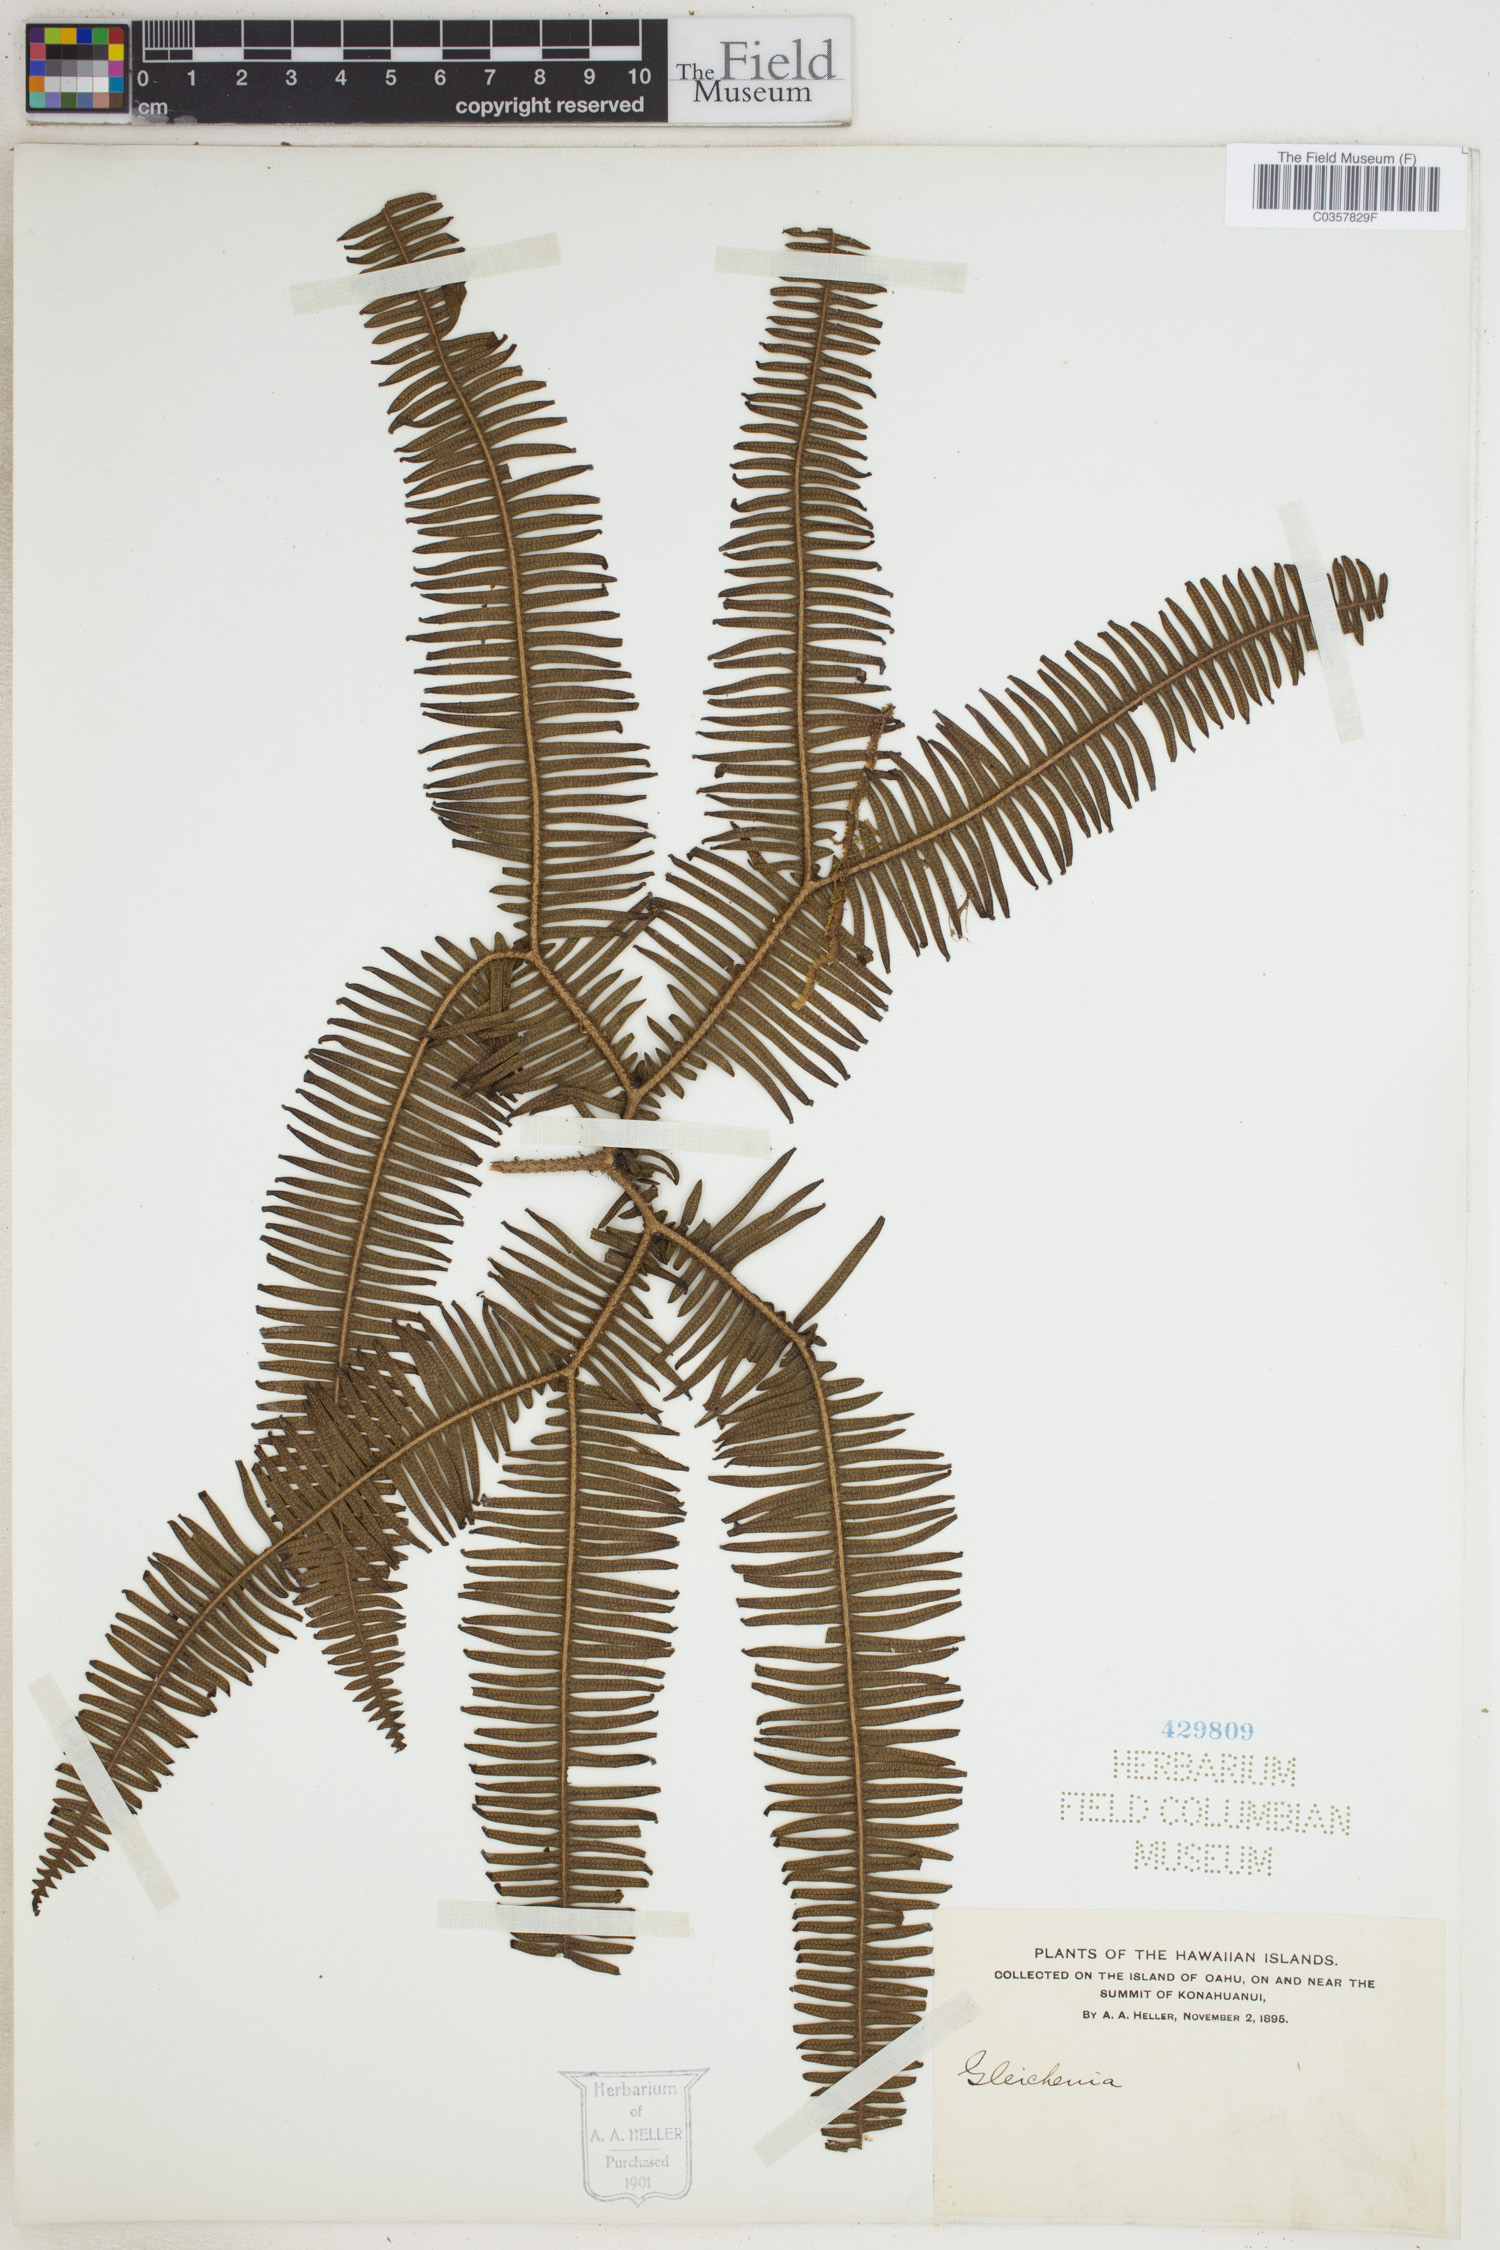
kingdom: Plantae
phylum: Tracheophyta
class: Polypodiopsida
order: Gleicheniales
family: Gleicheniaceae
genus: Gleichenia
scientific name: Gleichenia
